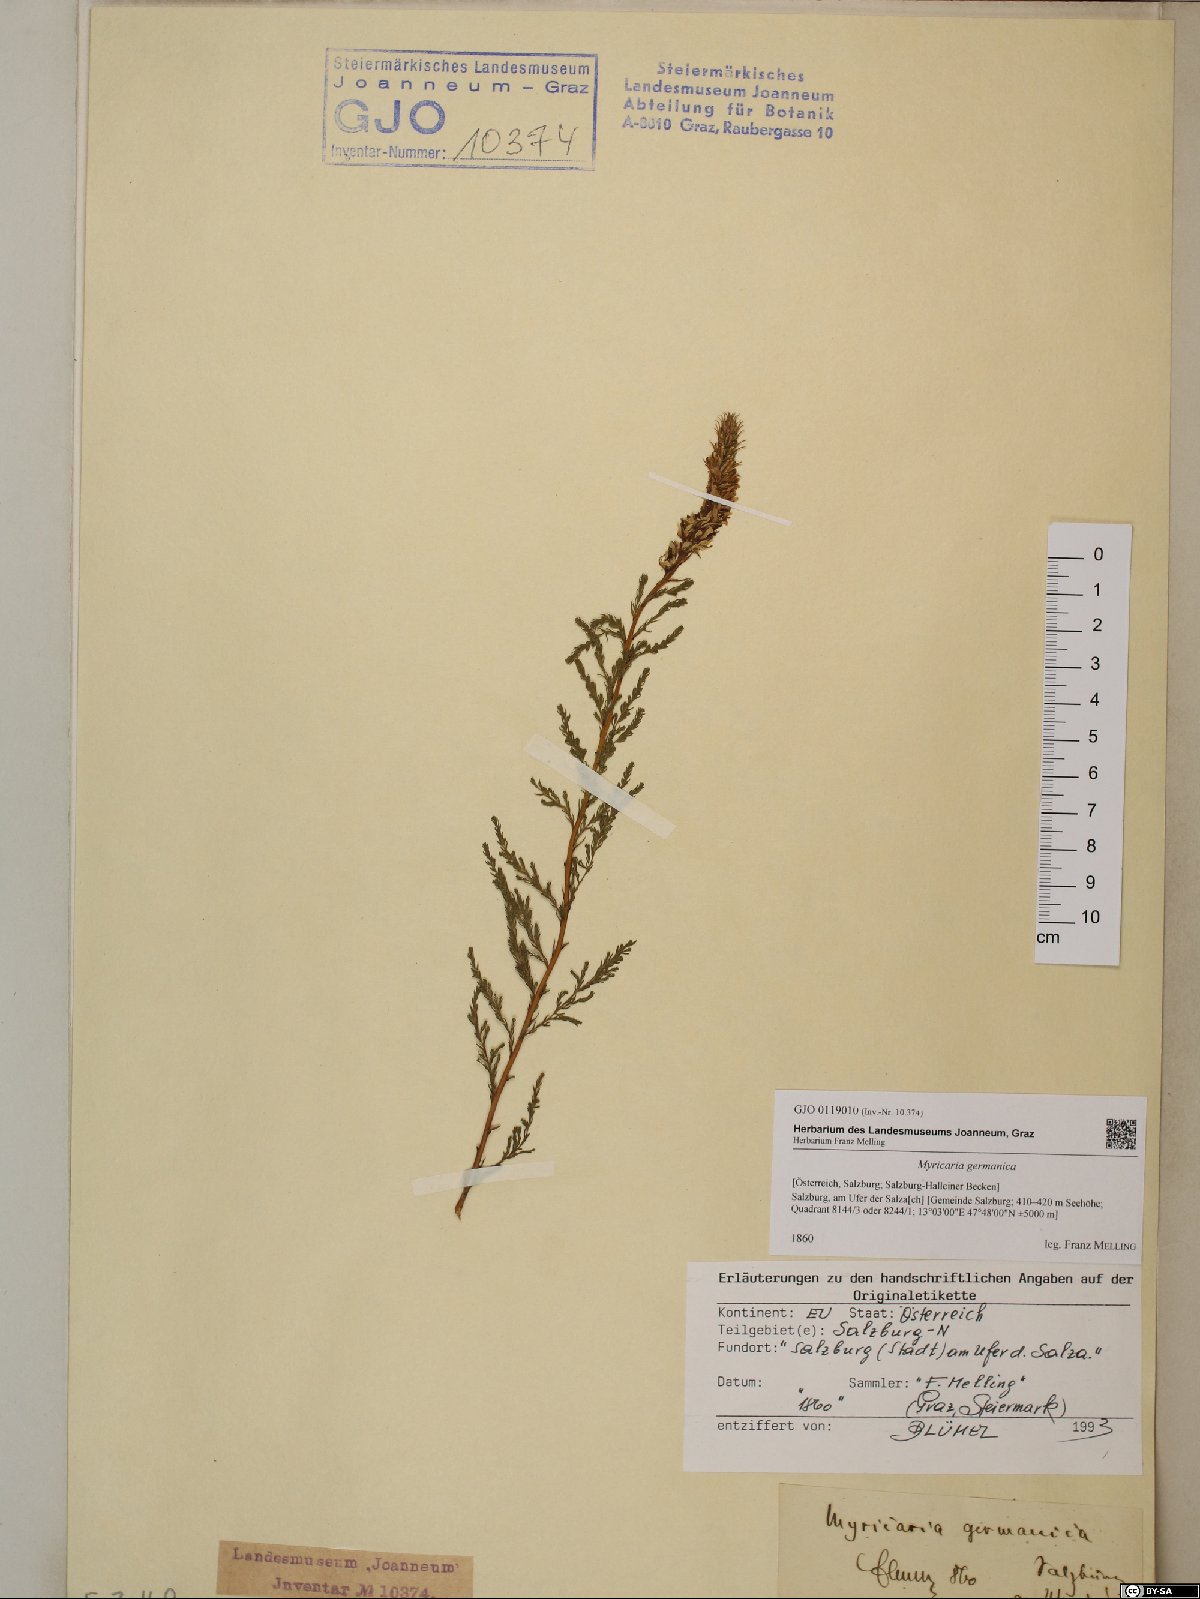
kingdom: Plantae
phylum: Tracheophyta
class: Magnoliopsida
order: Caryophyllales
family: Tamaricaceae
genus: Myricaria
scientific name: Myricaria germanica
